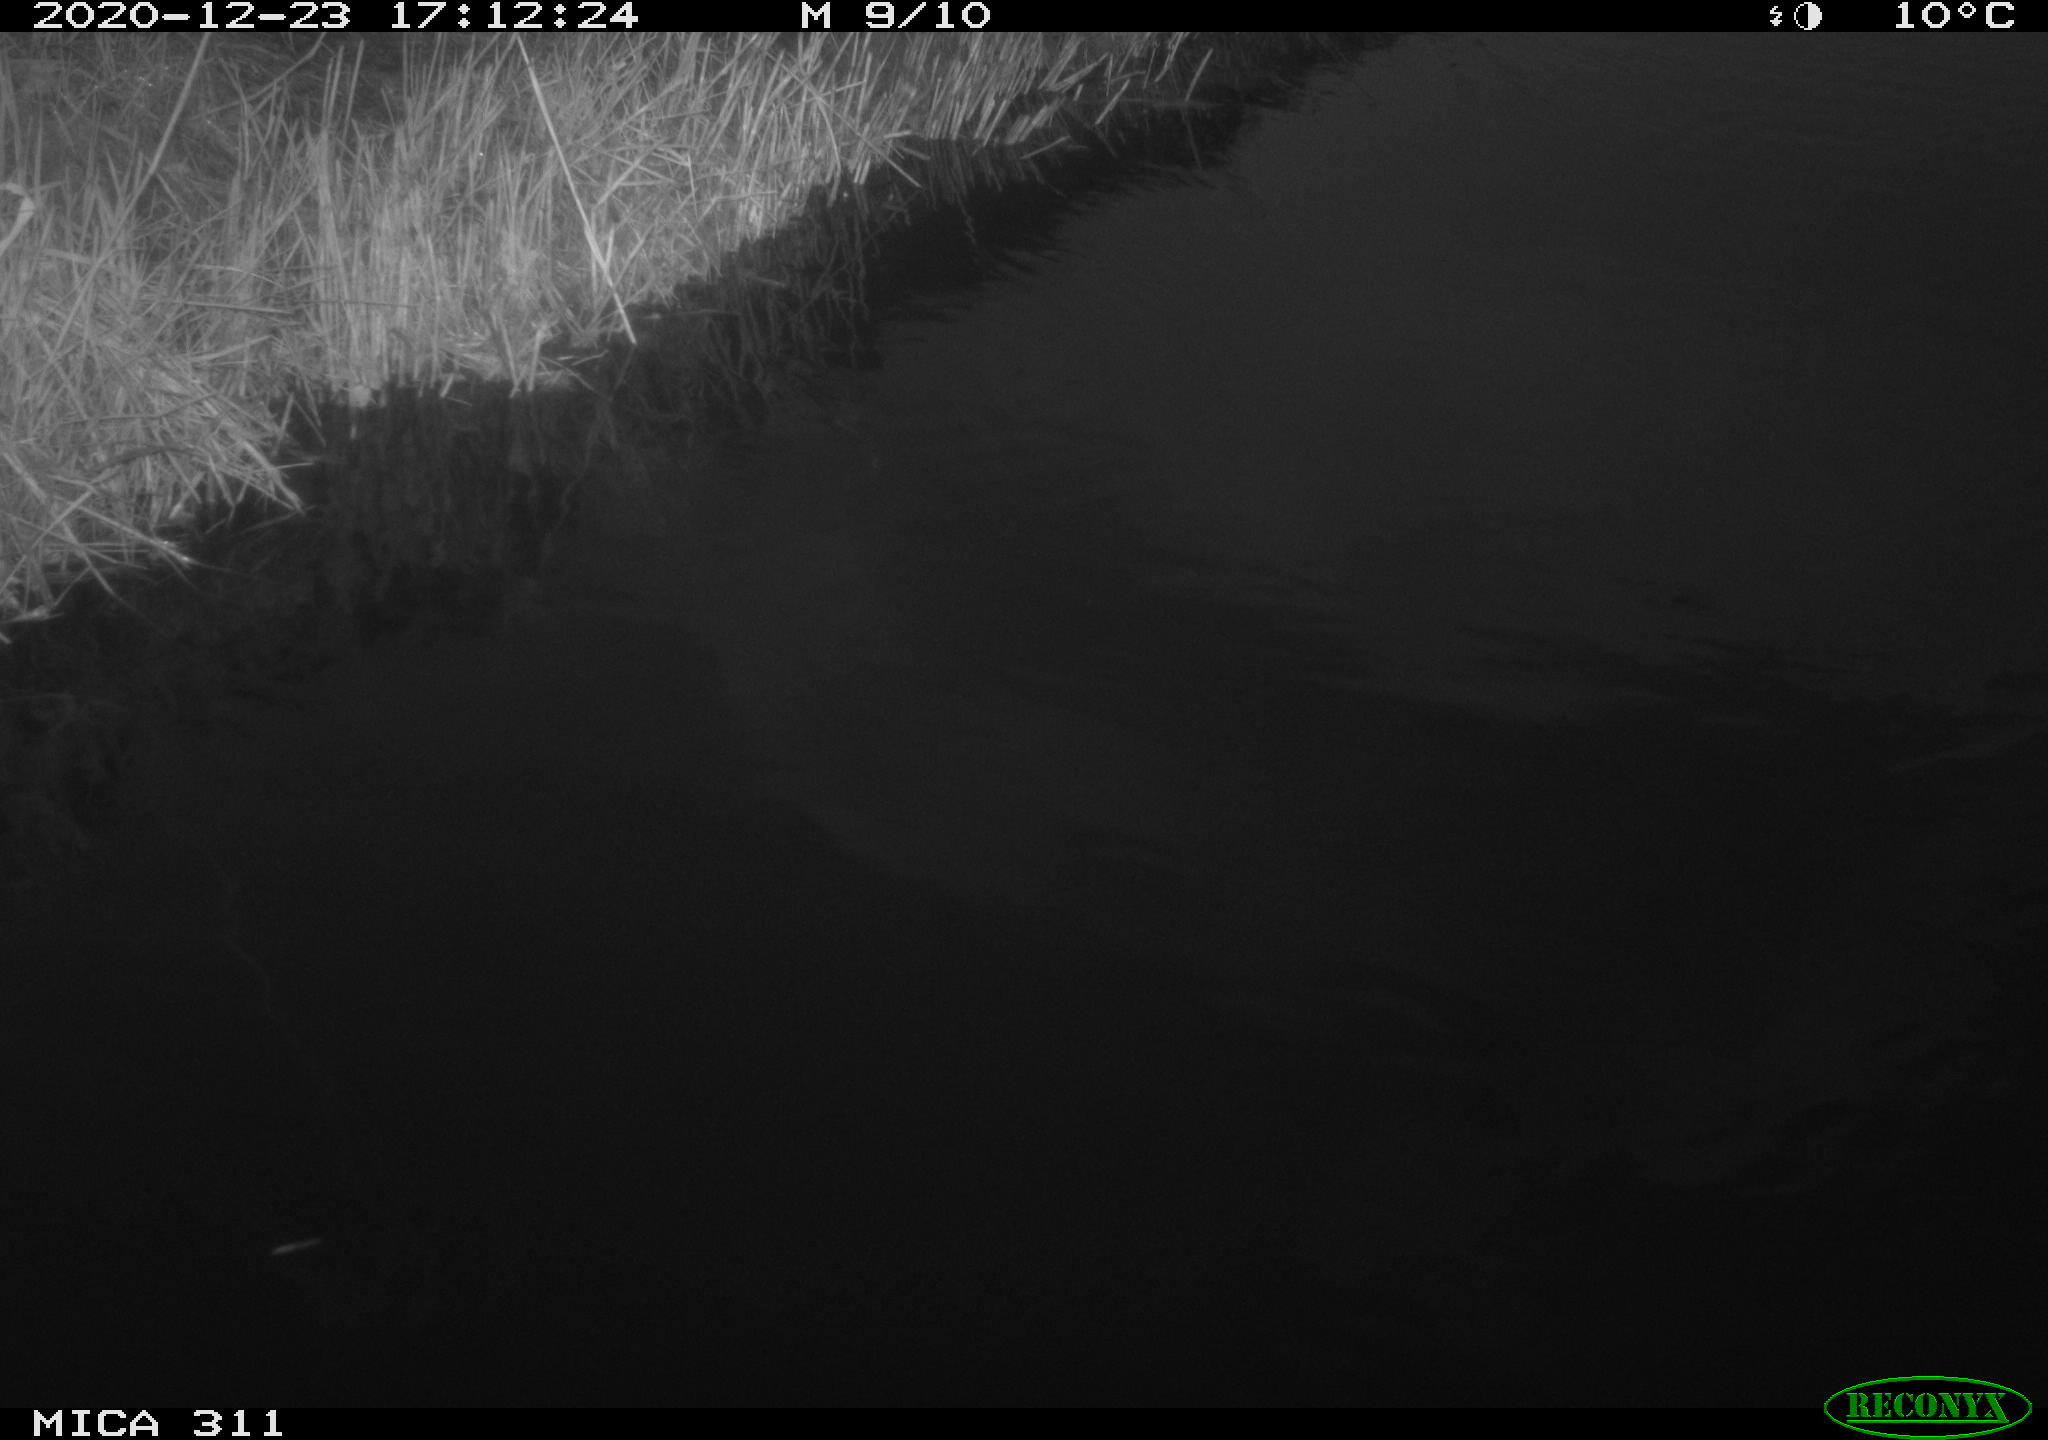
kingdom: Animalia
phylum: Chordata
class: Aves
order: Gruiformes
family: Rallidae
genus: Gallinula
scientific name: Gallinula chloropus
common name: Common moorhen
